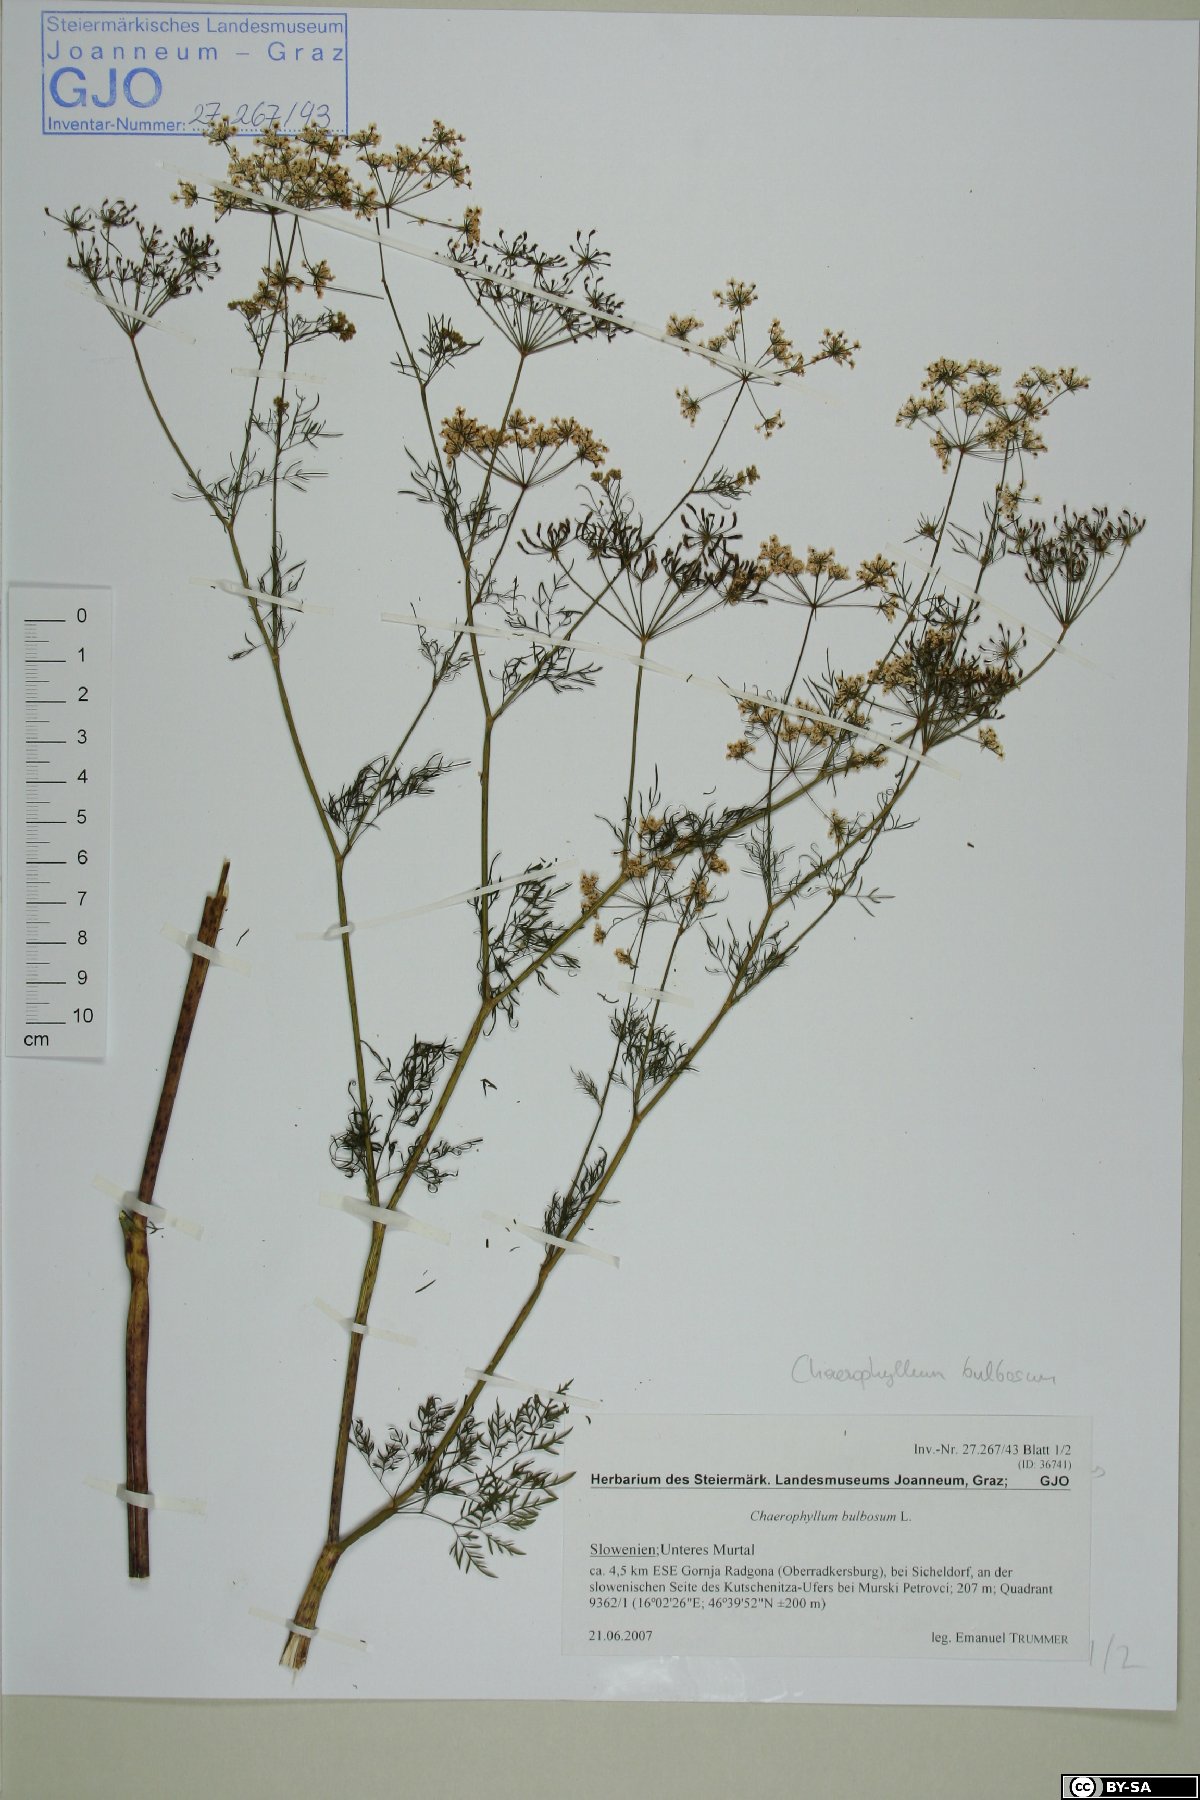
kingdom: Plantae
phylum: Tracheophyta
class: Magnoliopsida
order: Apiales
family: Apiaceae
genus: Chaerophyllum
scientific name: Chaerophyllum bulbosum
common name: Bulbous chervil
